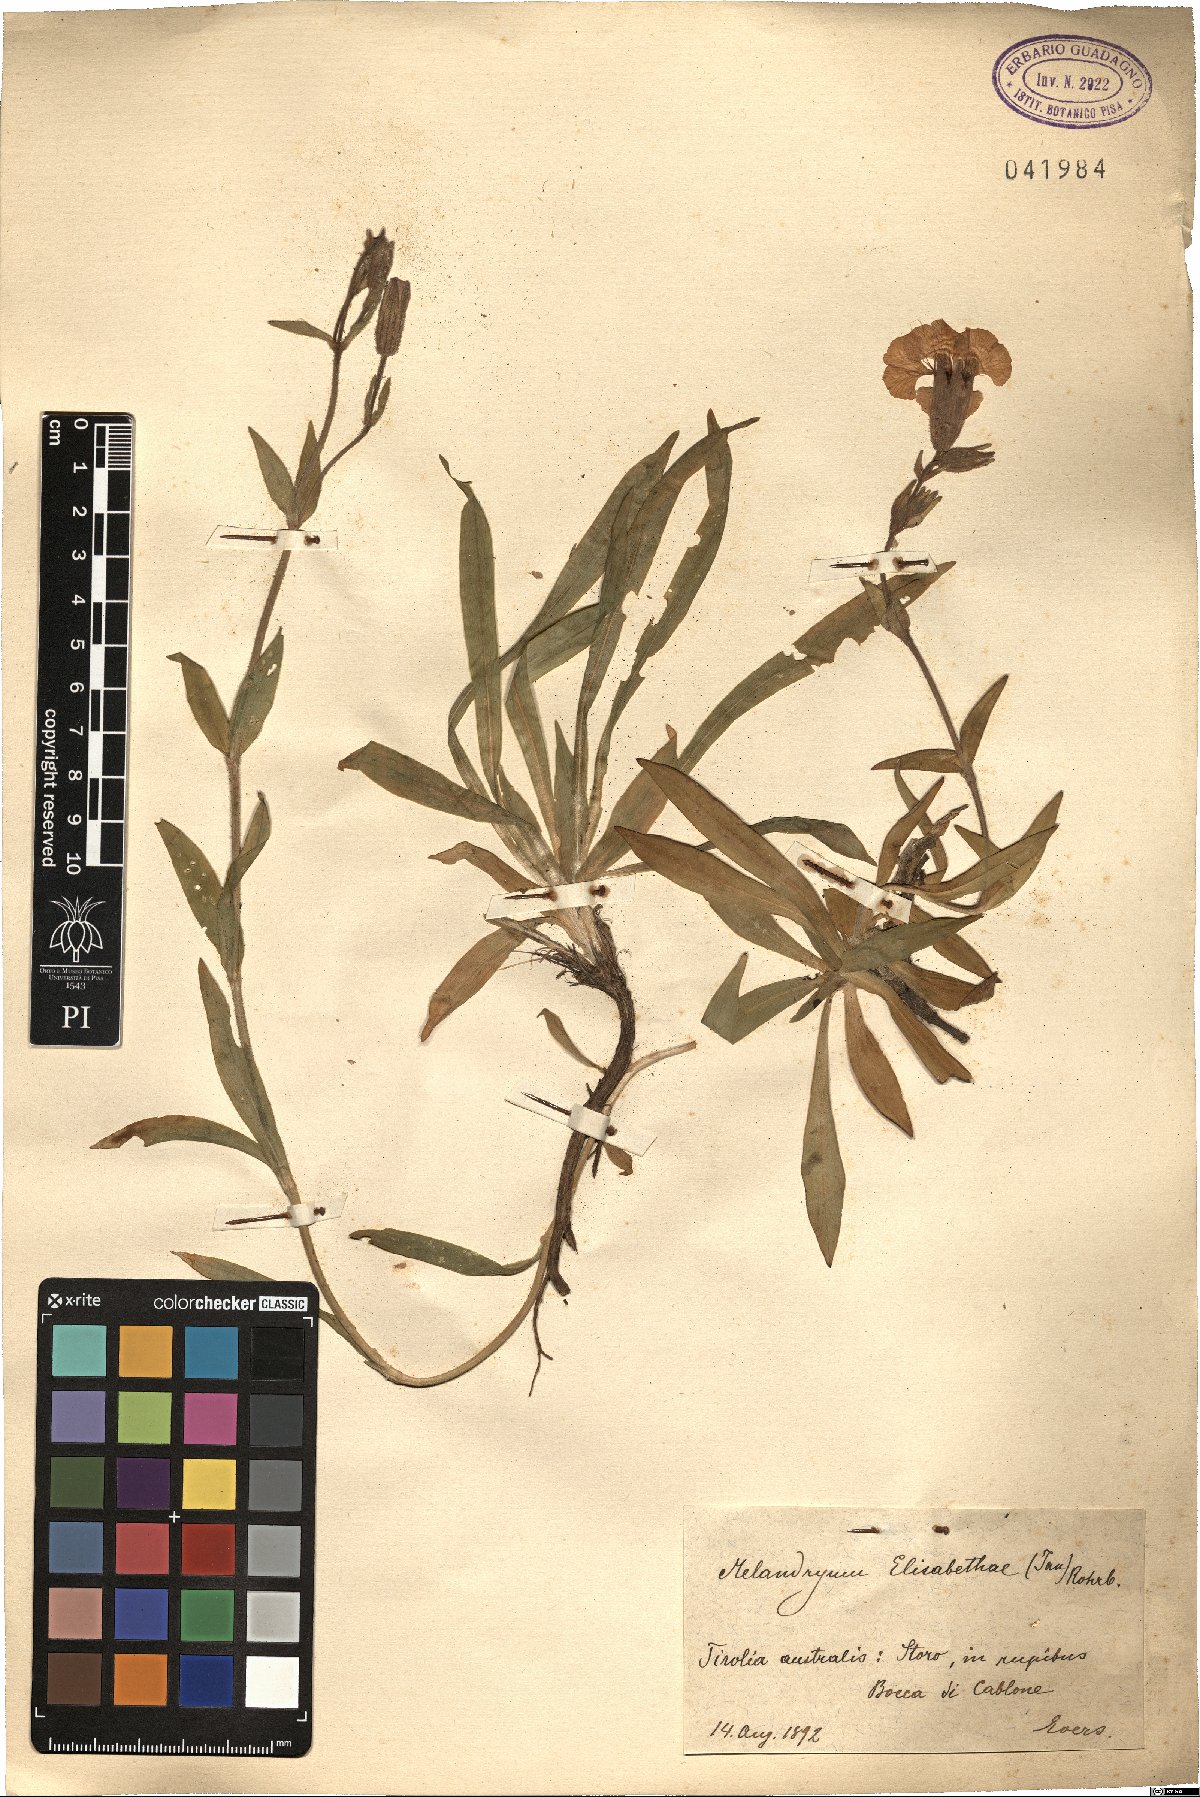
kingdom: Plantae
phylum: Tracheophyta
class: Magnoliopsida
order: Caryophyllales
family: Caryophyllaceae
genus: Silene
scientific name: Silene elisabethae
